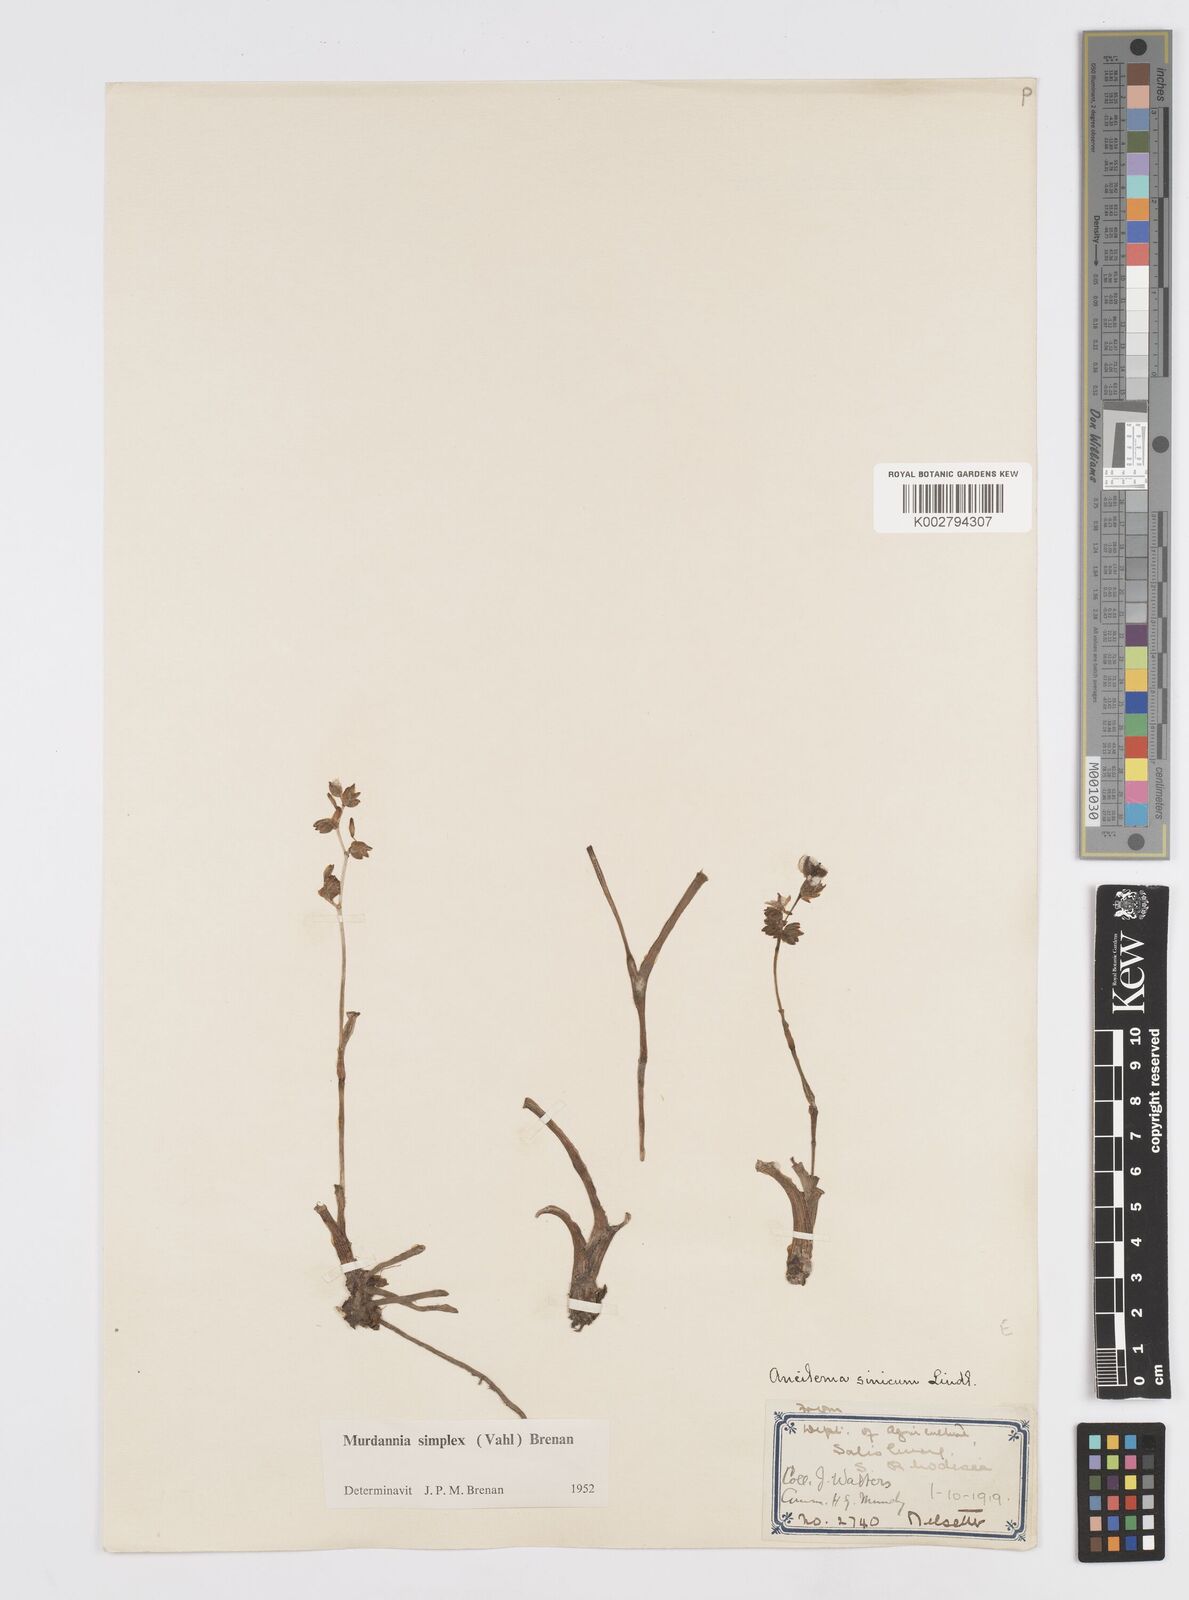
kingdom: Plantae
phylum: Tracheophyta
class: Liliopsida
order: Commelinales
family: Commelinaceae
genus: Murdannia
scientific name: Murdannia simplex
